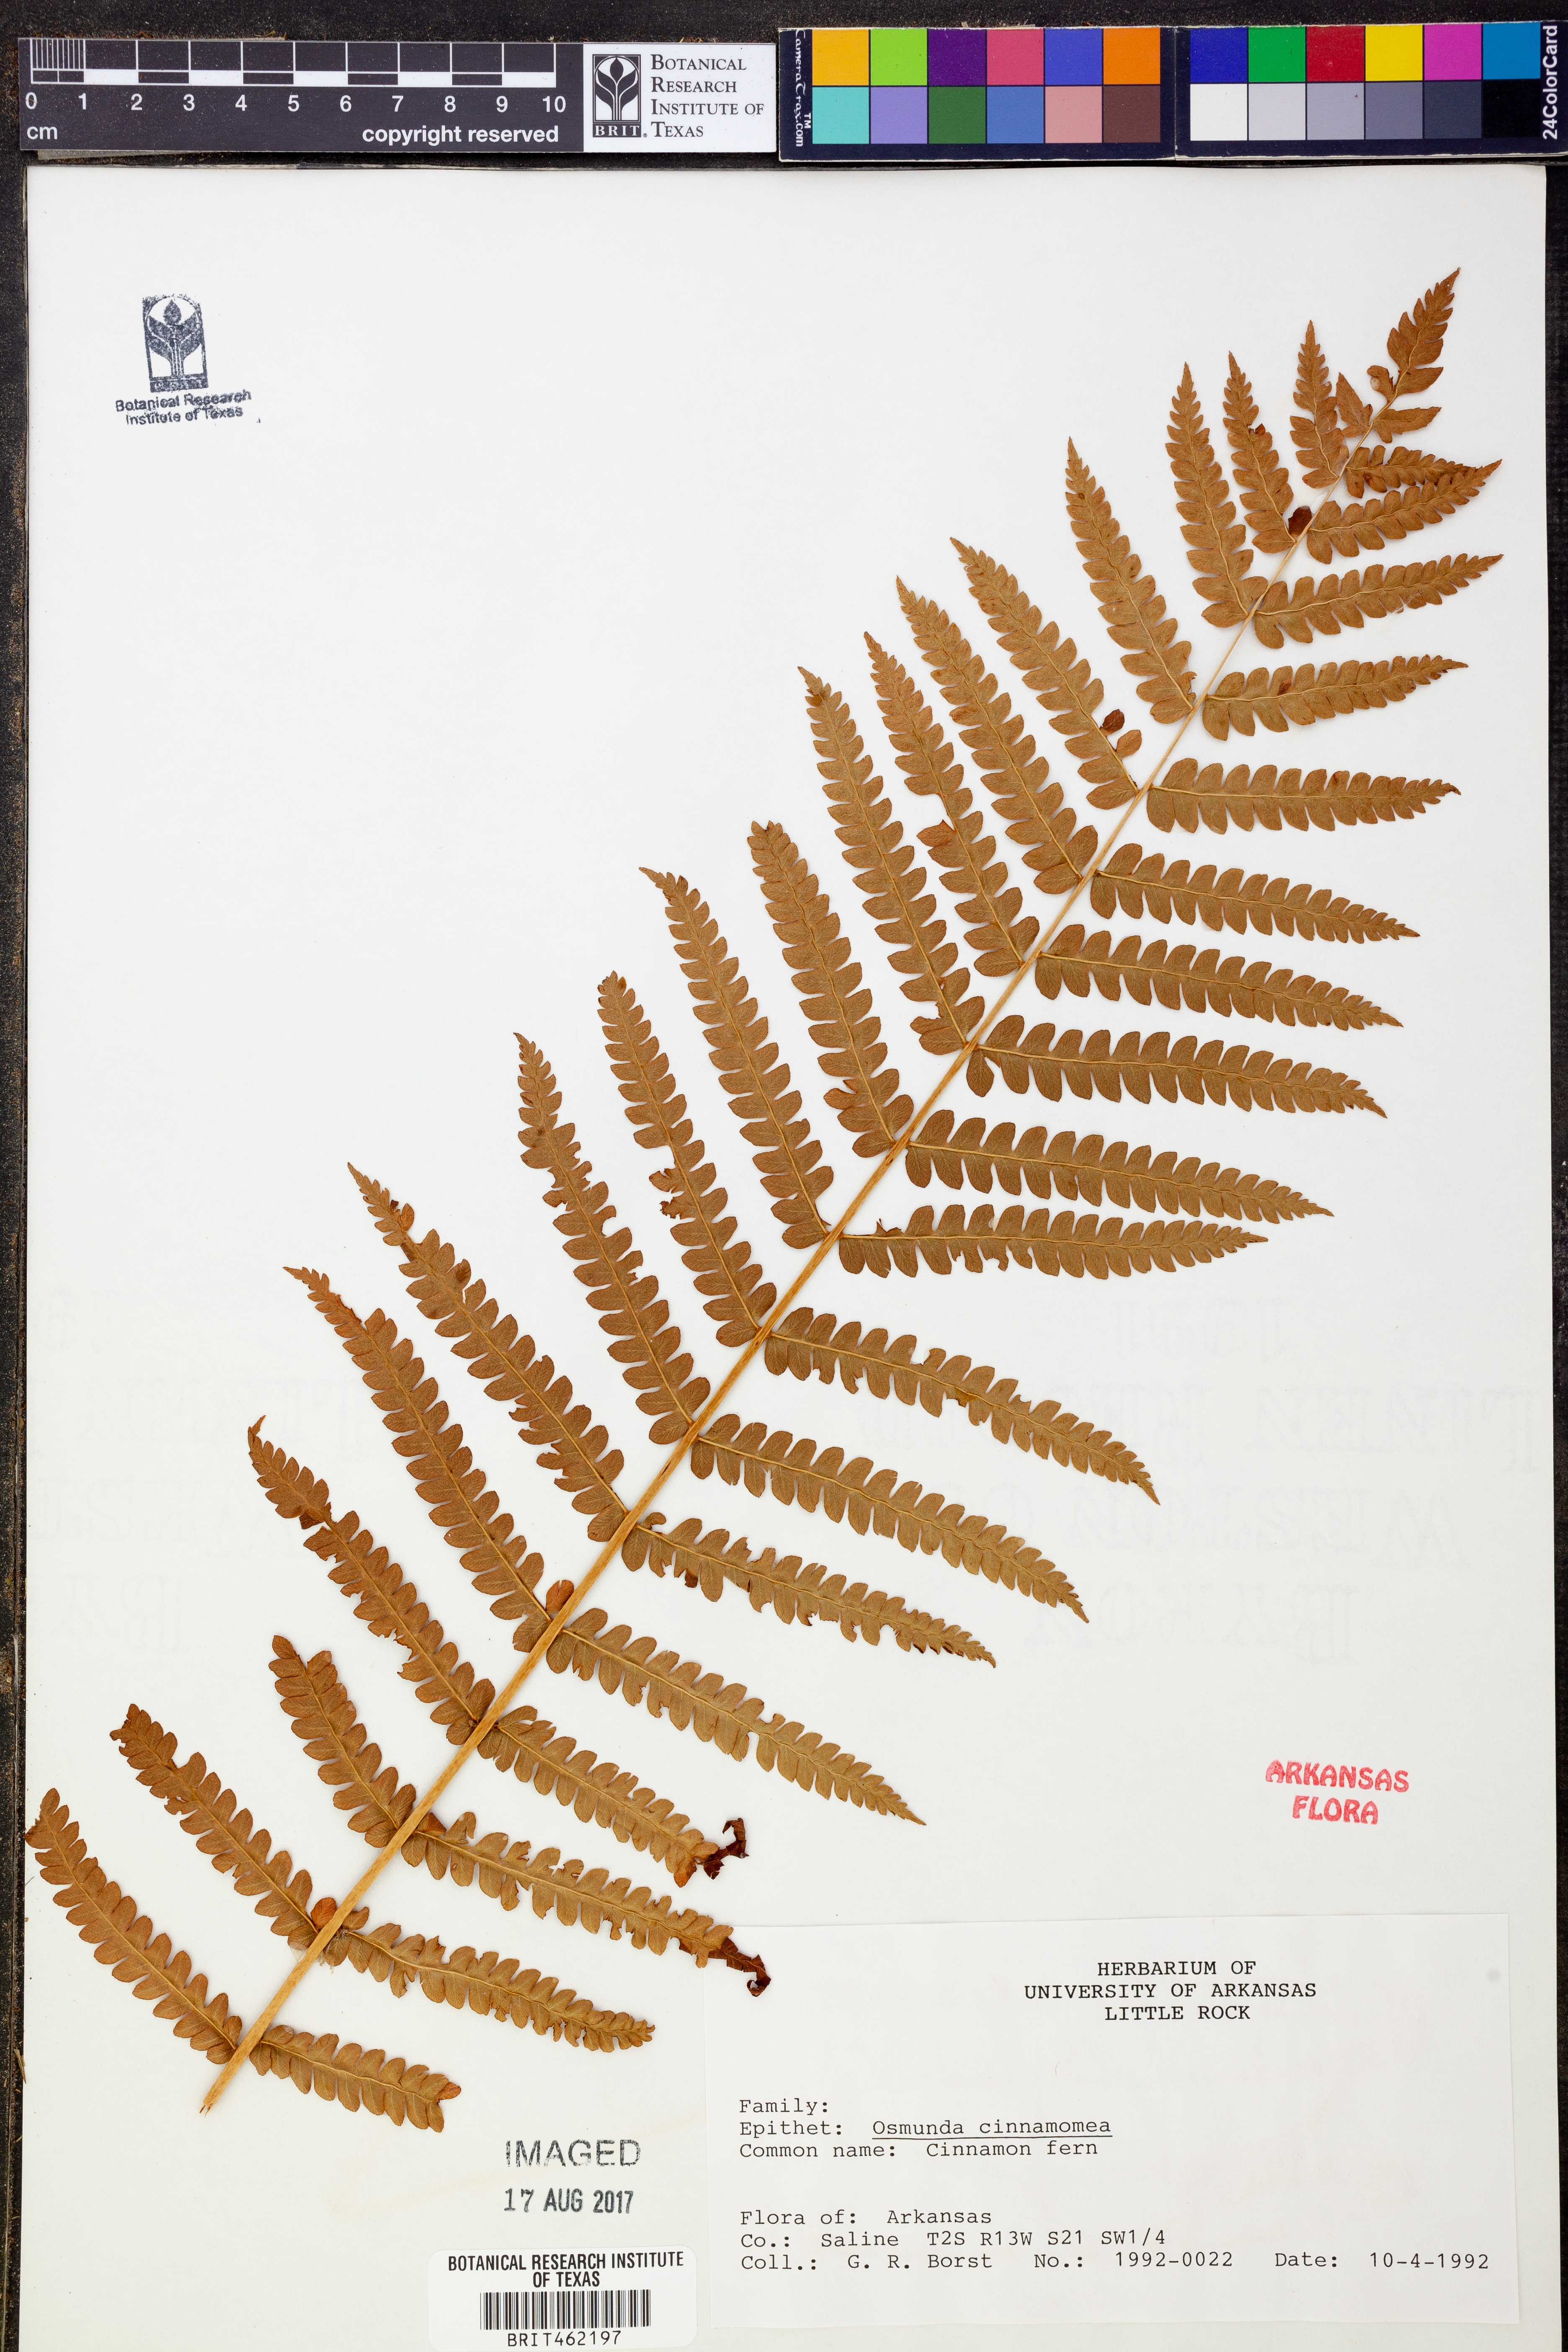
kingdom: Plantae
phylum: Tracheophyta
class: Polypodiopsida
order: Osmundales
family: Osmundaceae
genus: Osmundastrum
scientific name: Osmundastrum cinnamomeum
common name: Cinnamon fern
